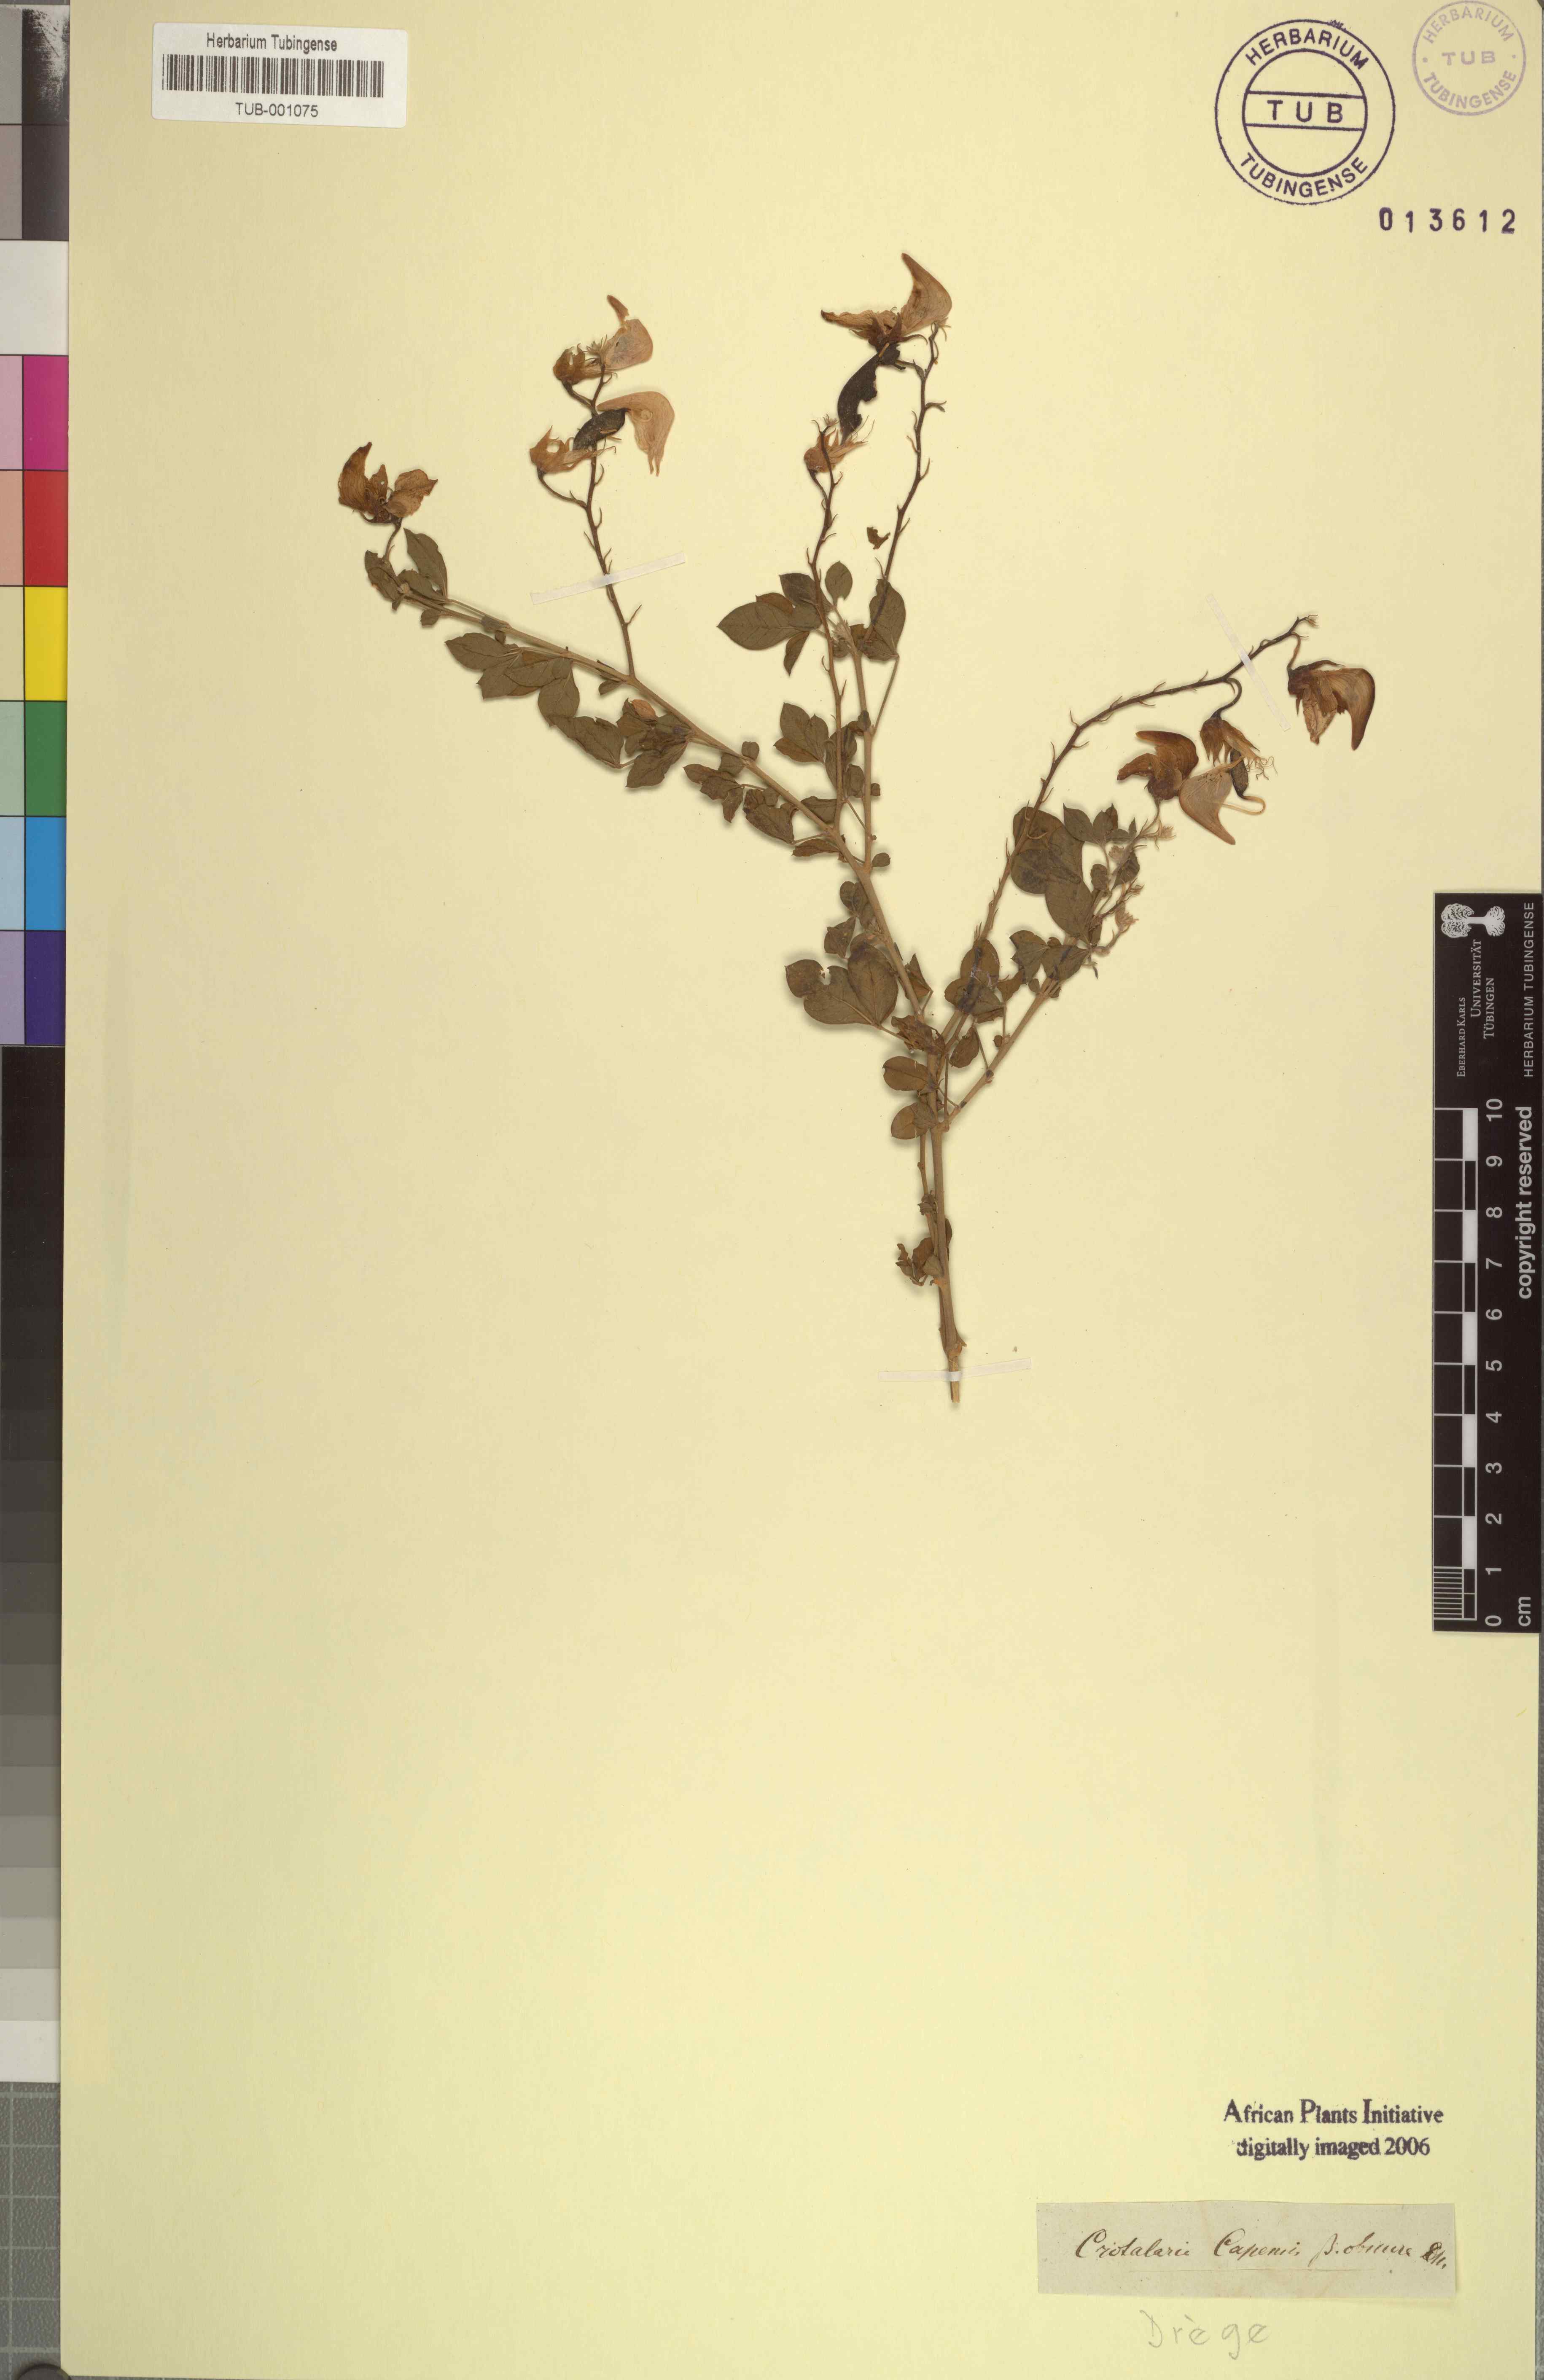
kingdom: Plantae
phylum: Tracheophyta
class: Magnoliopsida
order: Fabales
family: Fabaceae
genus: Crotalaria
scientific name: Crotalaria capensis
